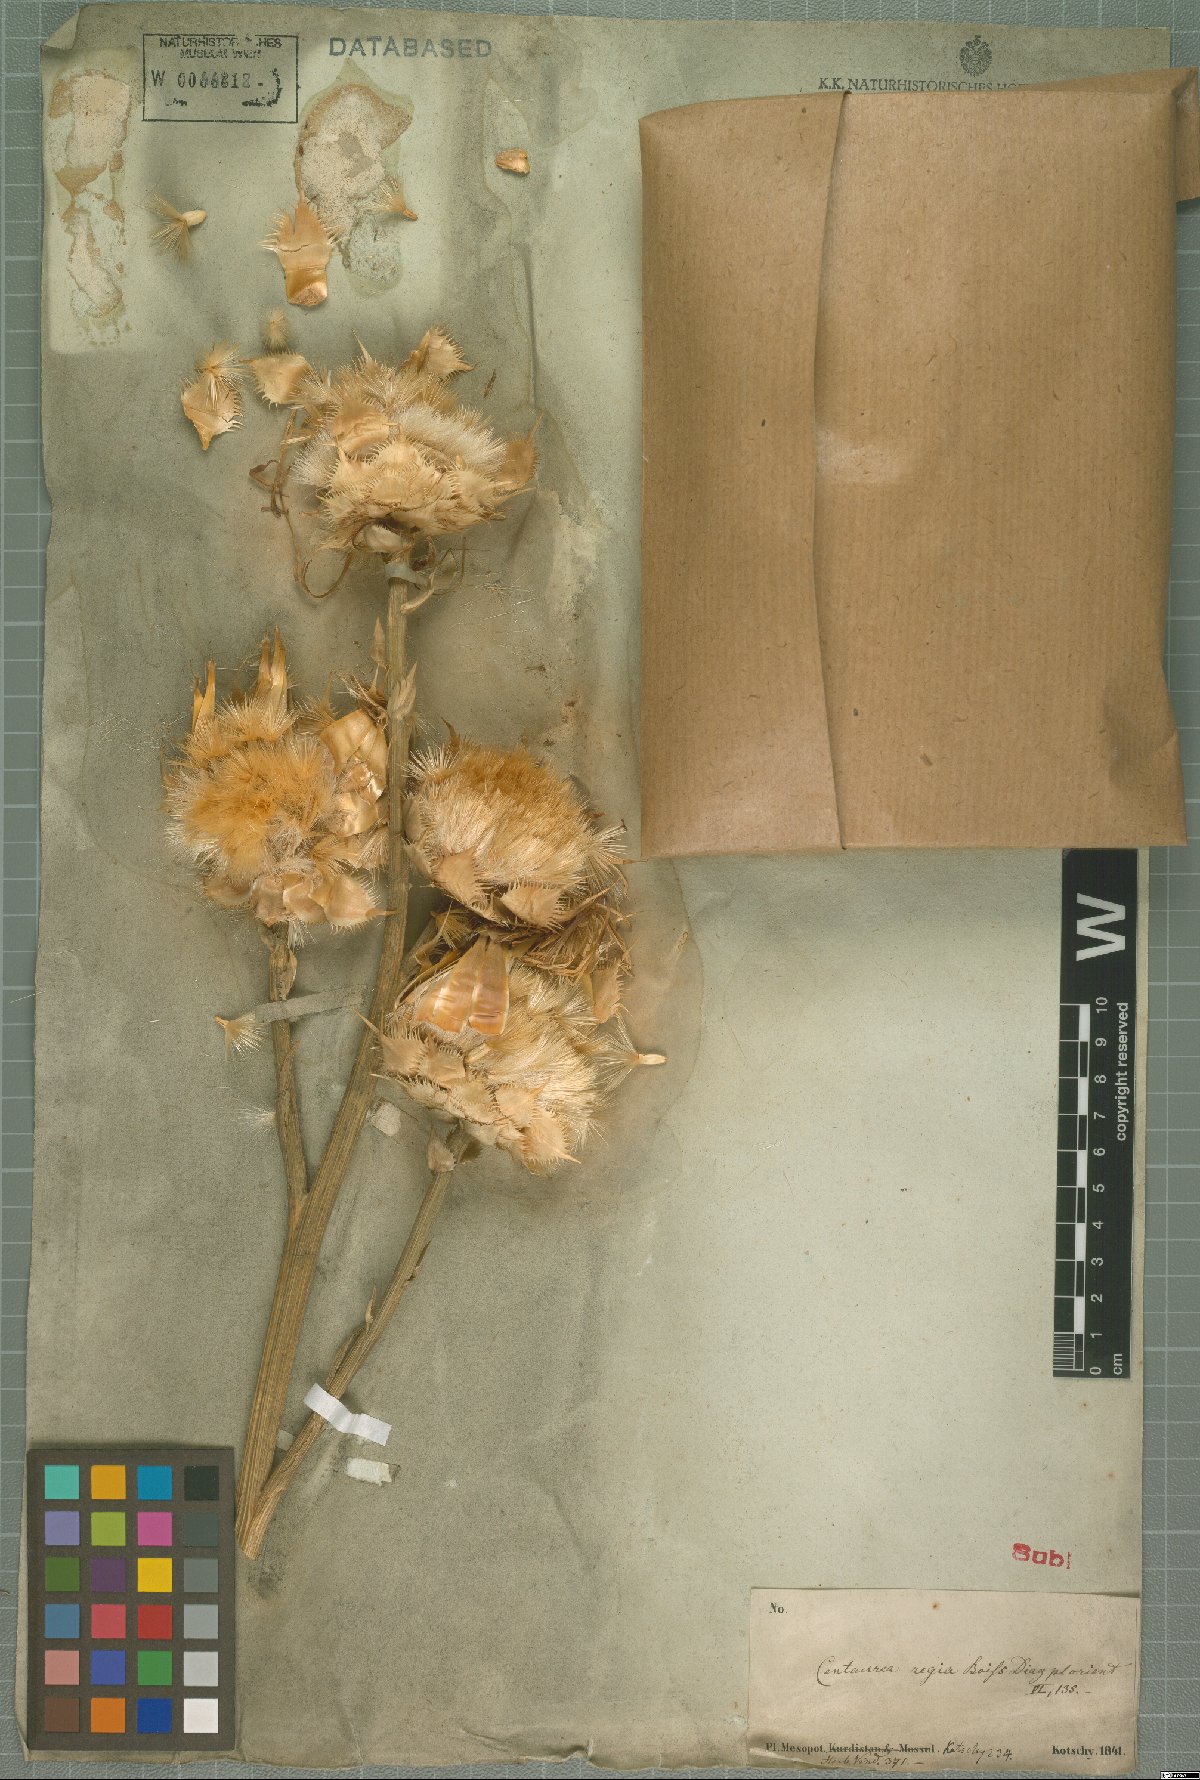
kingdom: Plantae
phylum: Tracheophyta
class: Magnoliopsida
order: Asterales
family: Asteraceae
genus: Centaurea
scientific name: Centaurea regia
